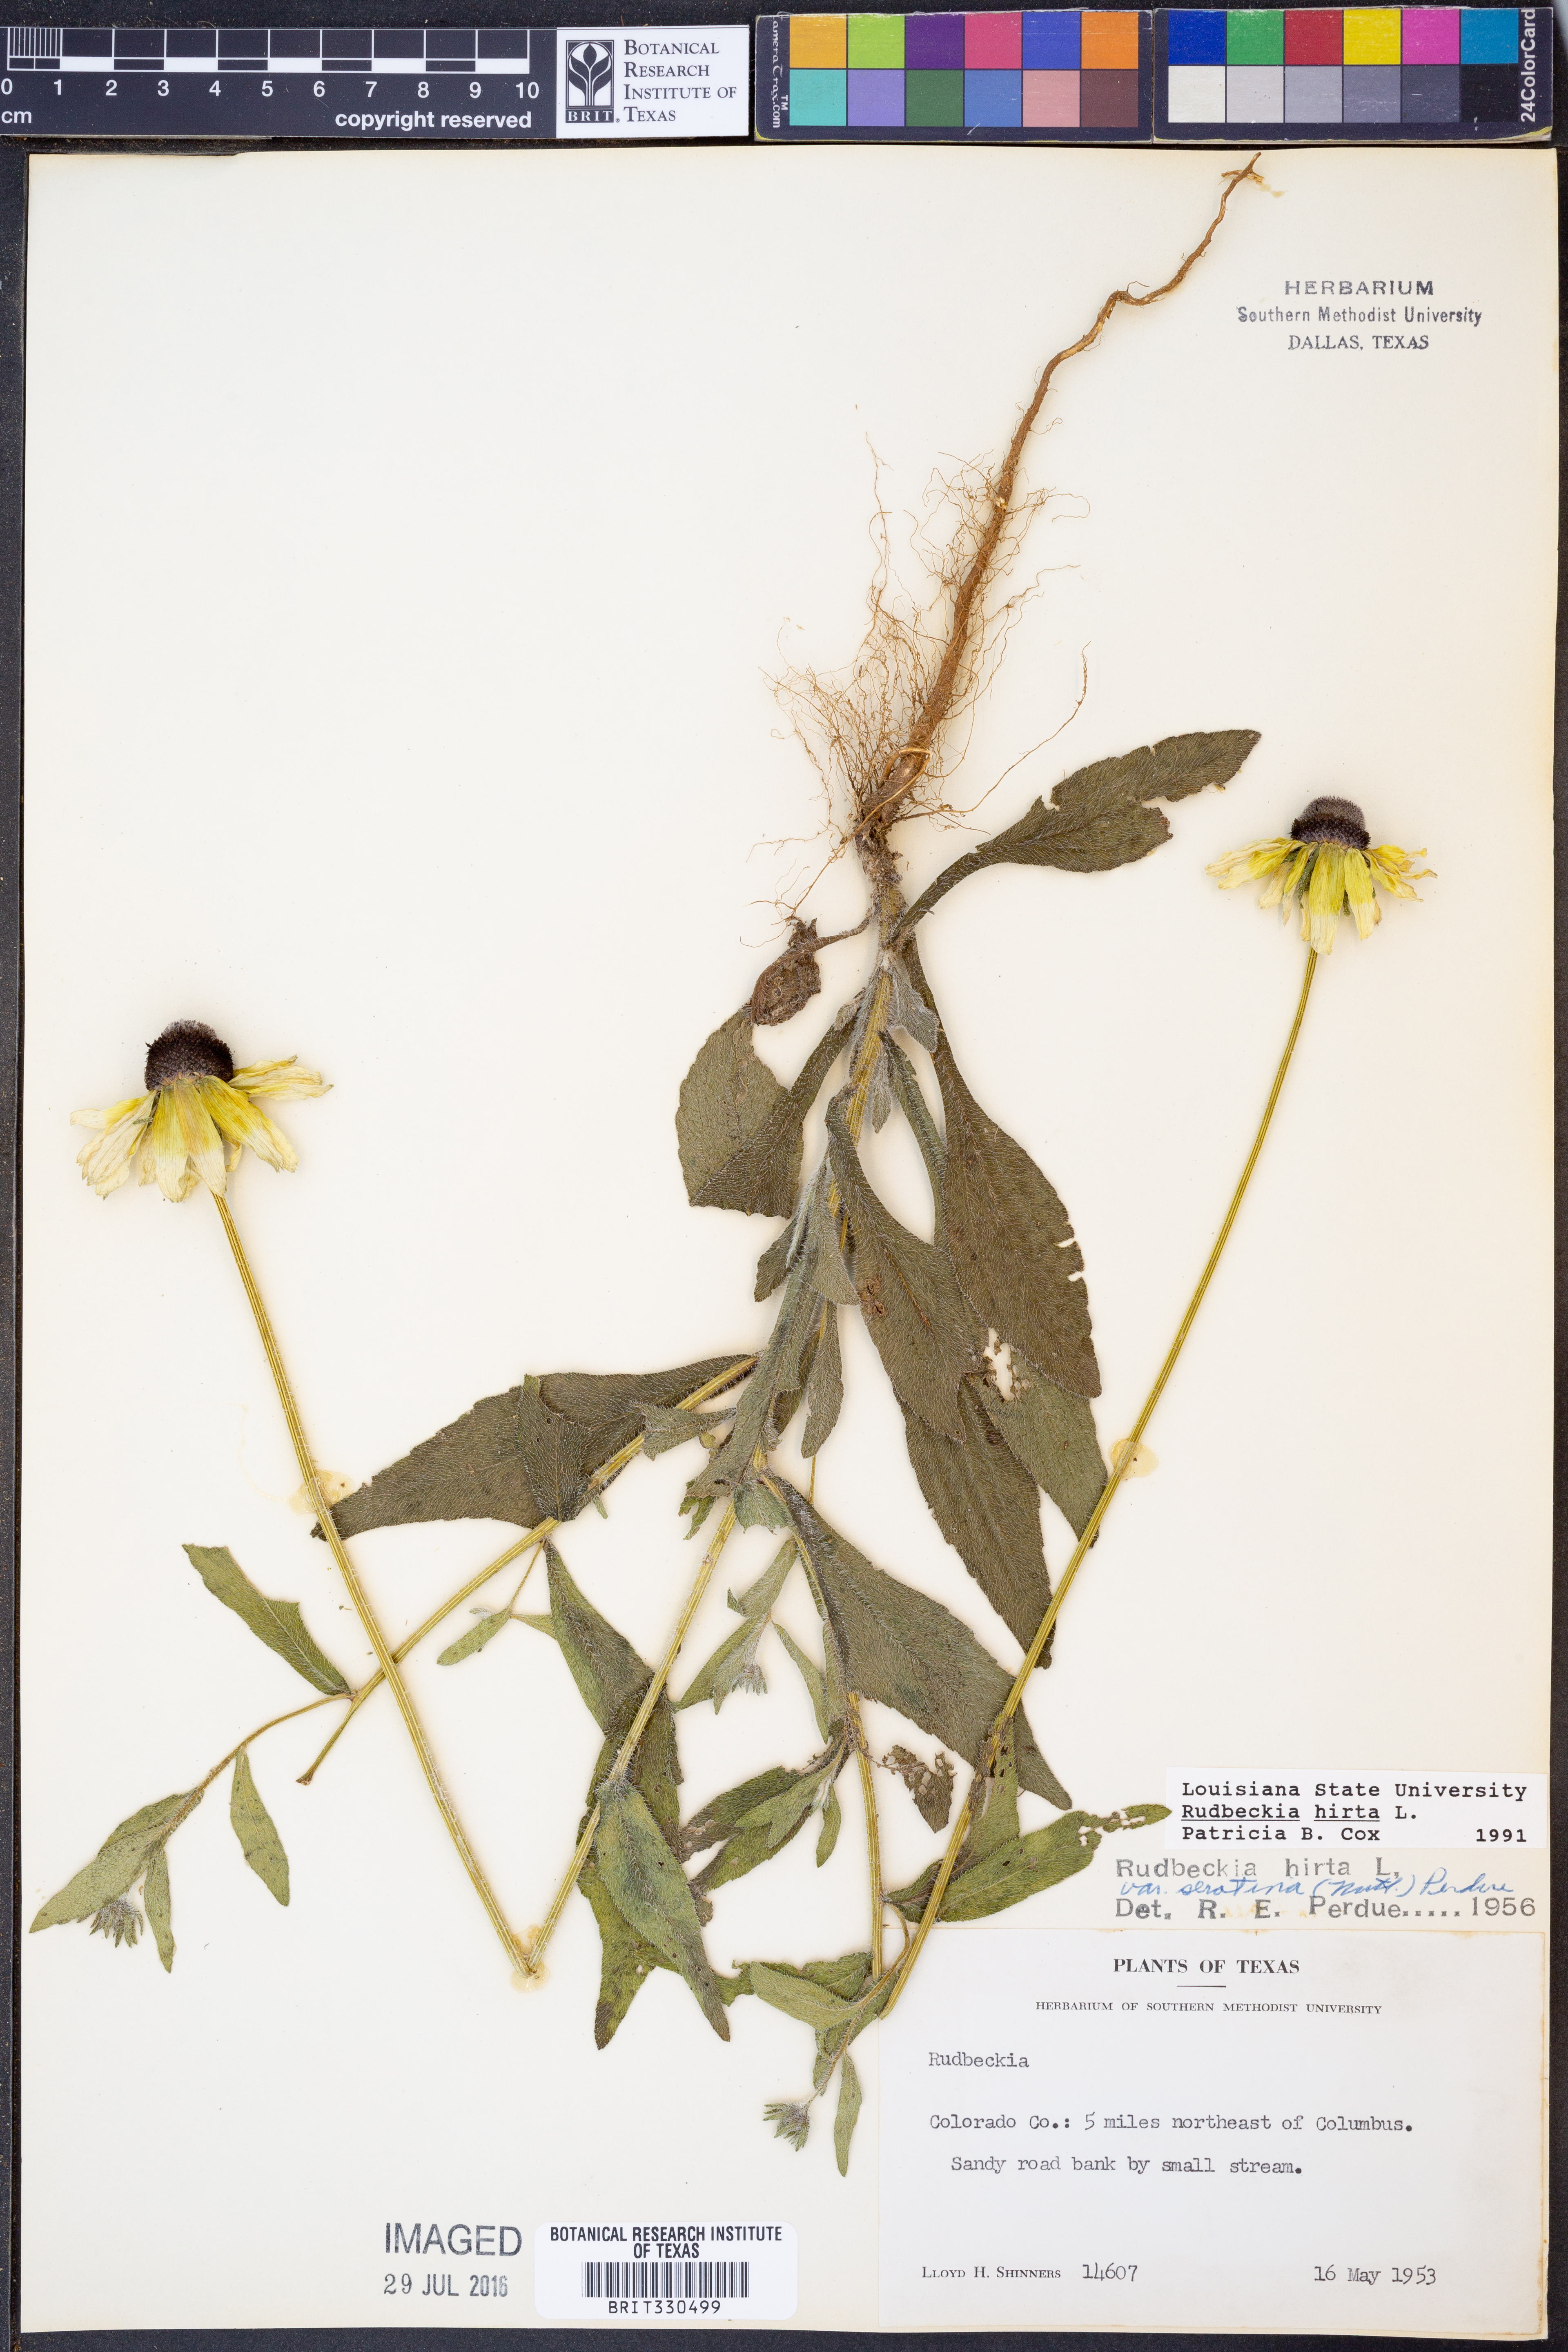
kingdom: Plantae
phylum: Tracheophyta
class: Magnoliopsida
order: Asterales
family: Asteraceae
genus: Rudbeckia
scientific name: Rudbeckia hirta
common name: Black-eyed-susan
